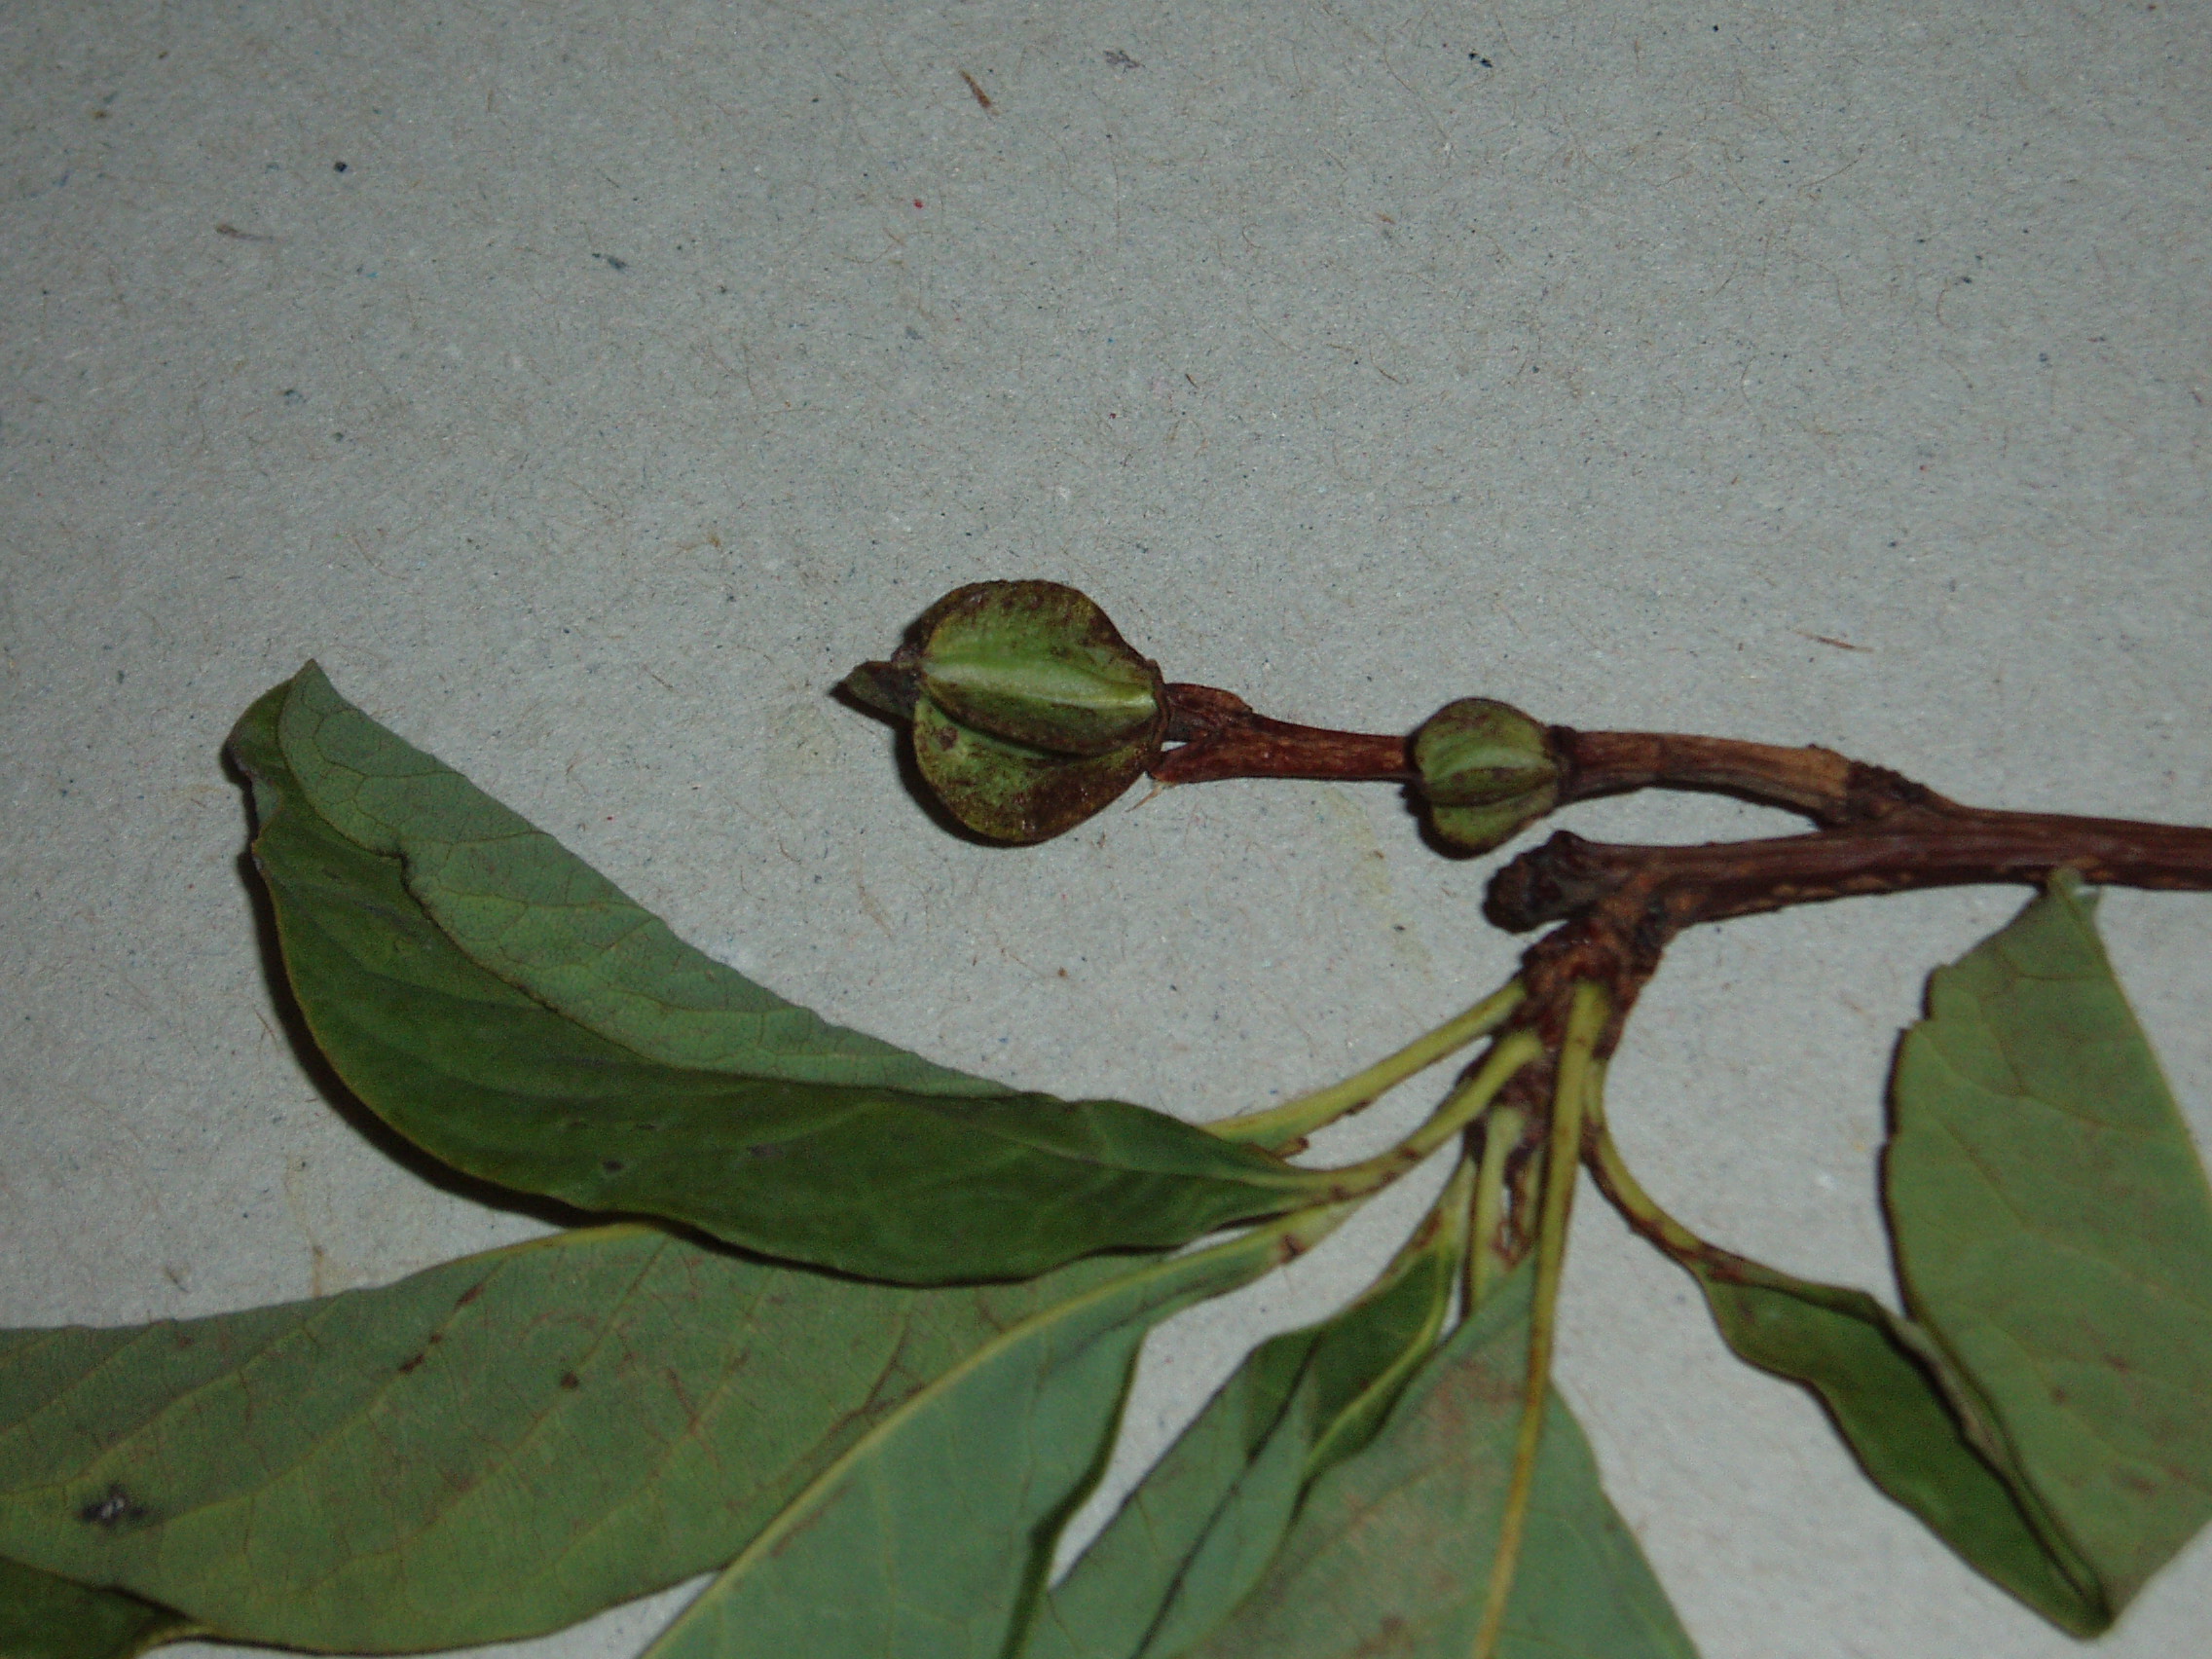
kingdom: Plantae
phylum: Tracheophyta
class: Magnoliopsida
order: Rosales
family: Rosaceae
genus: Exochorda
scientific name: Exochorda racemosa
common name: Common pearlbrush
